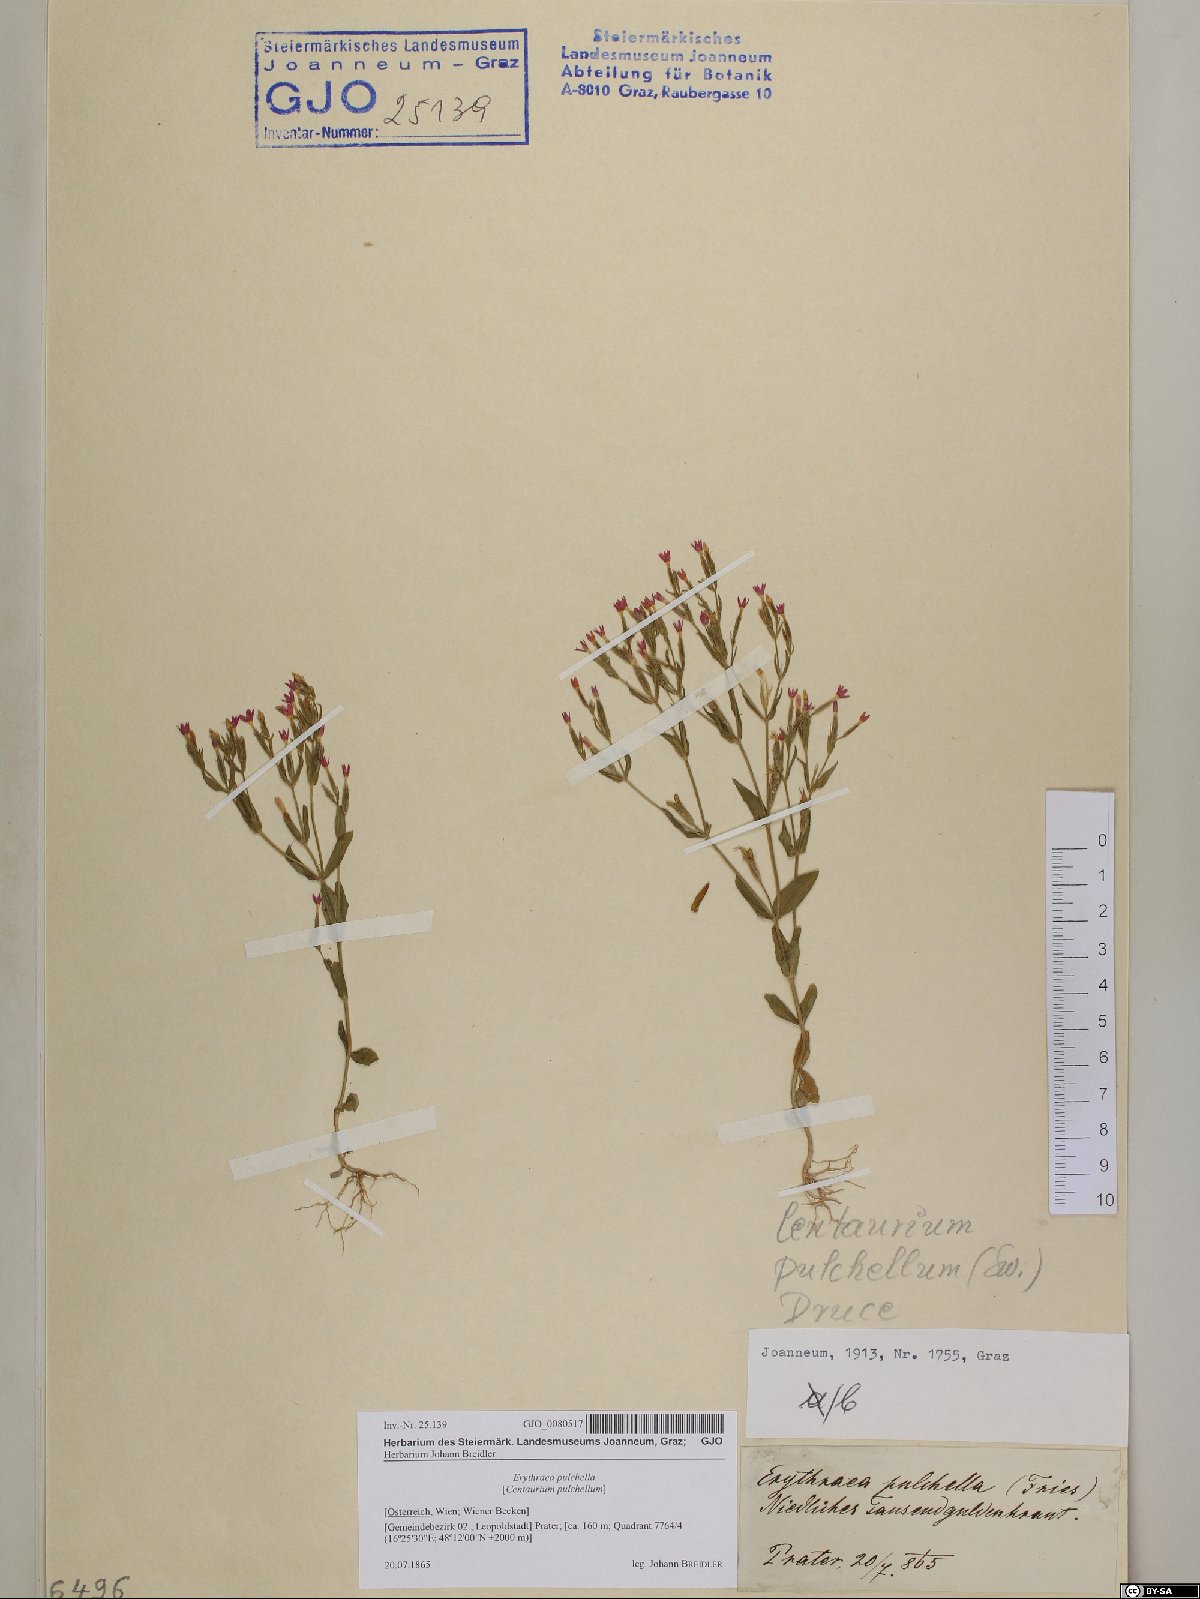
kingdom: Plantae
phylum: Tracheophyta
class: Magnoliopsida
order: Gentianales
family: Gentianaceae
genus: Centaurium
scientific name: Centaurium pulchellum
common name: Lesser centaury
